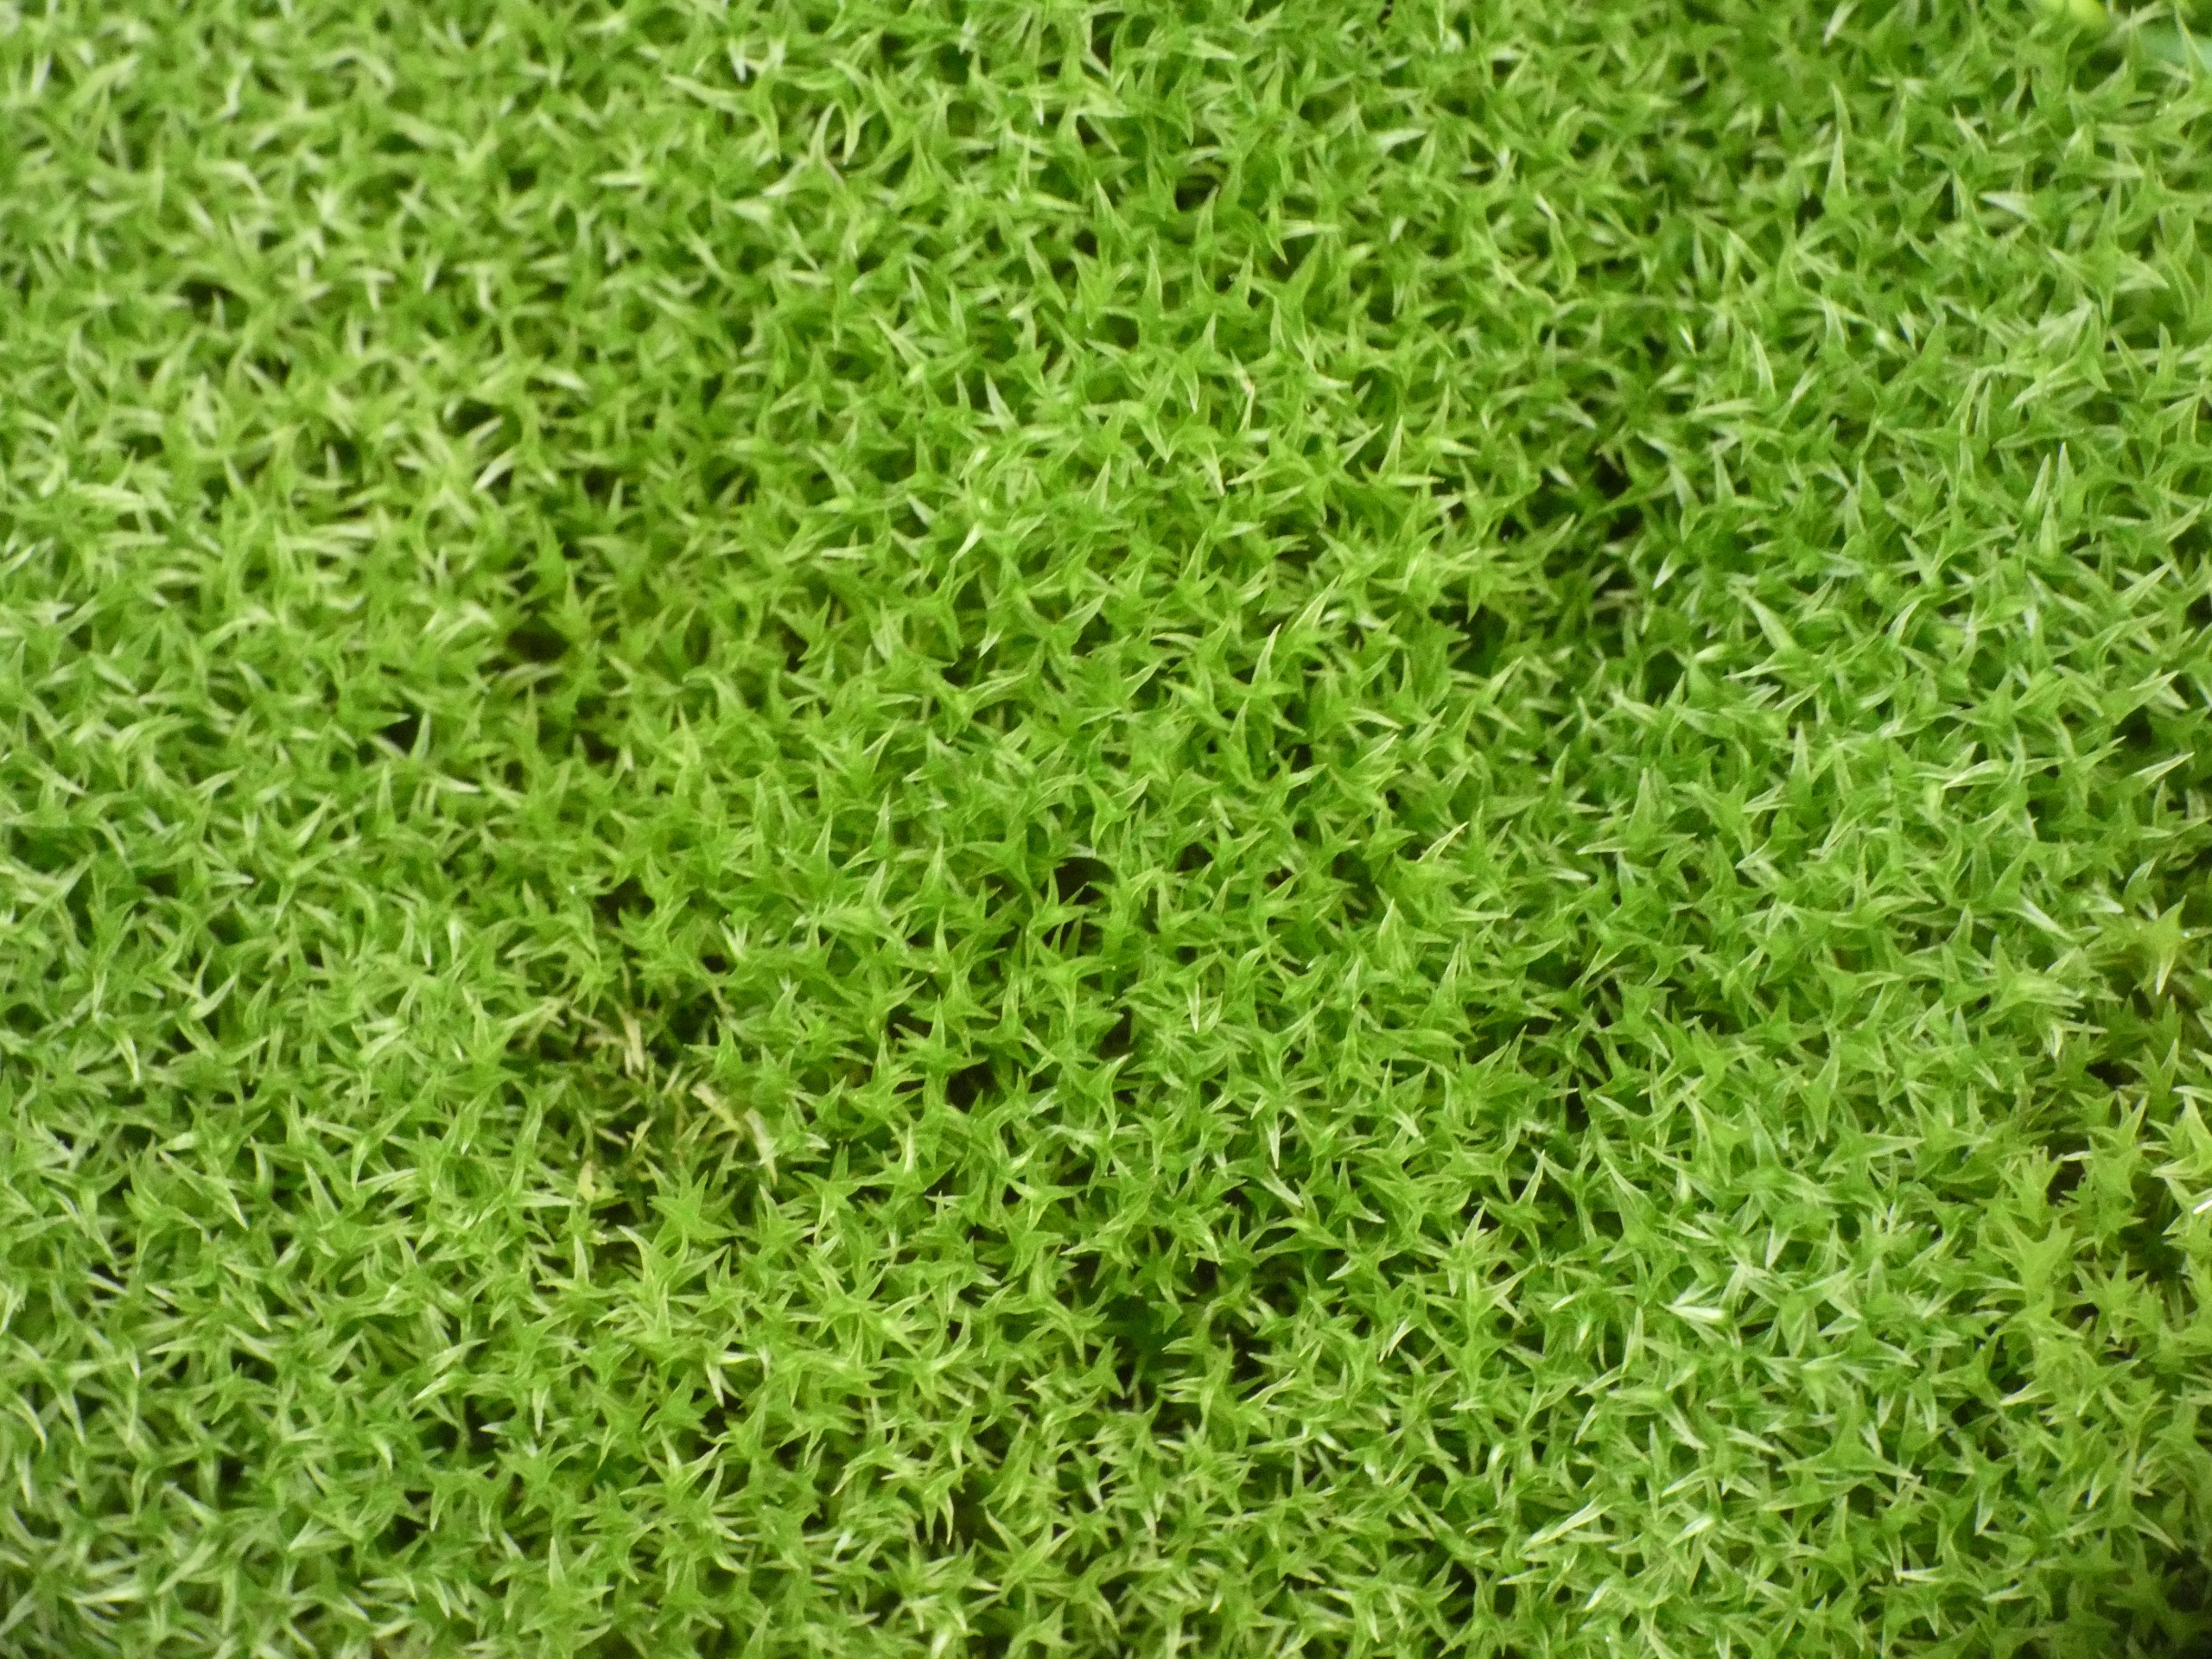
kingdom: Plantae
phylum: Bryophyta
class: Bryopsida
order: Dicranales
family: Ditrichaceae
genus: Ceratodon
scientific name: Ceratodon purpureus
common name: Rød horntand
